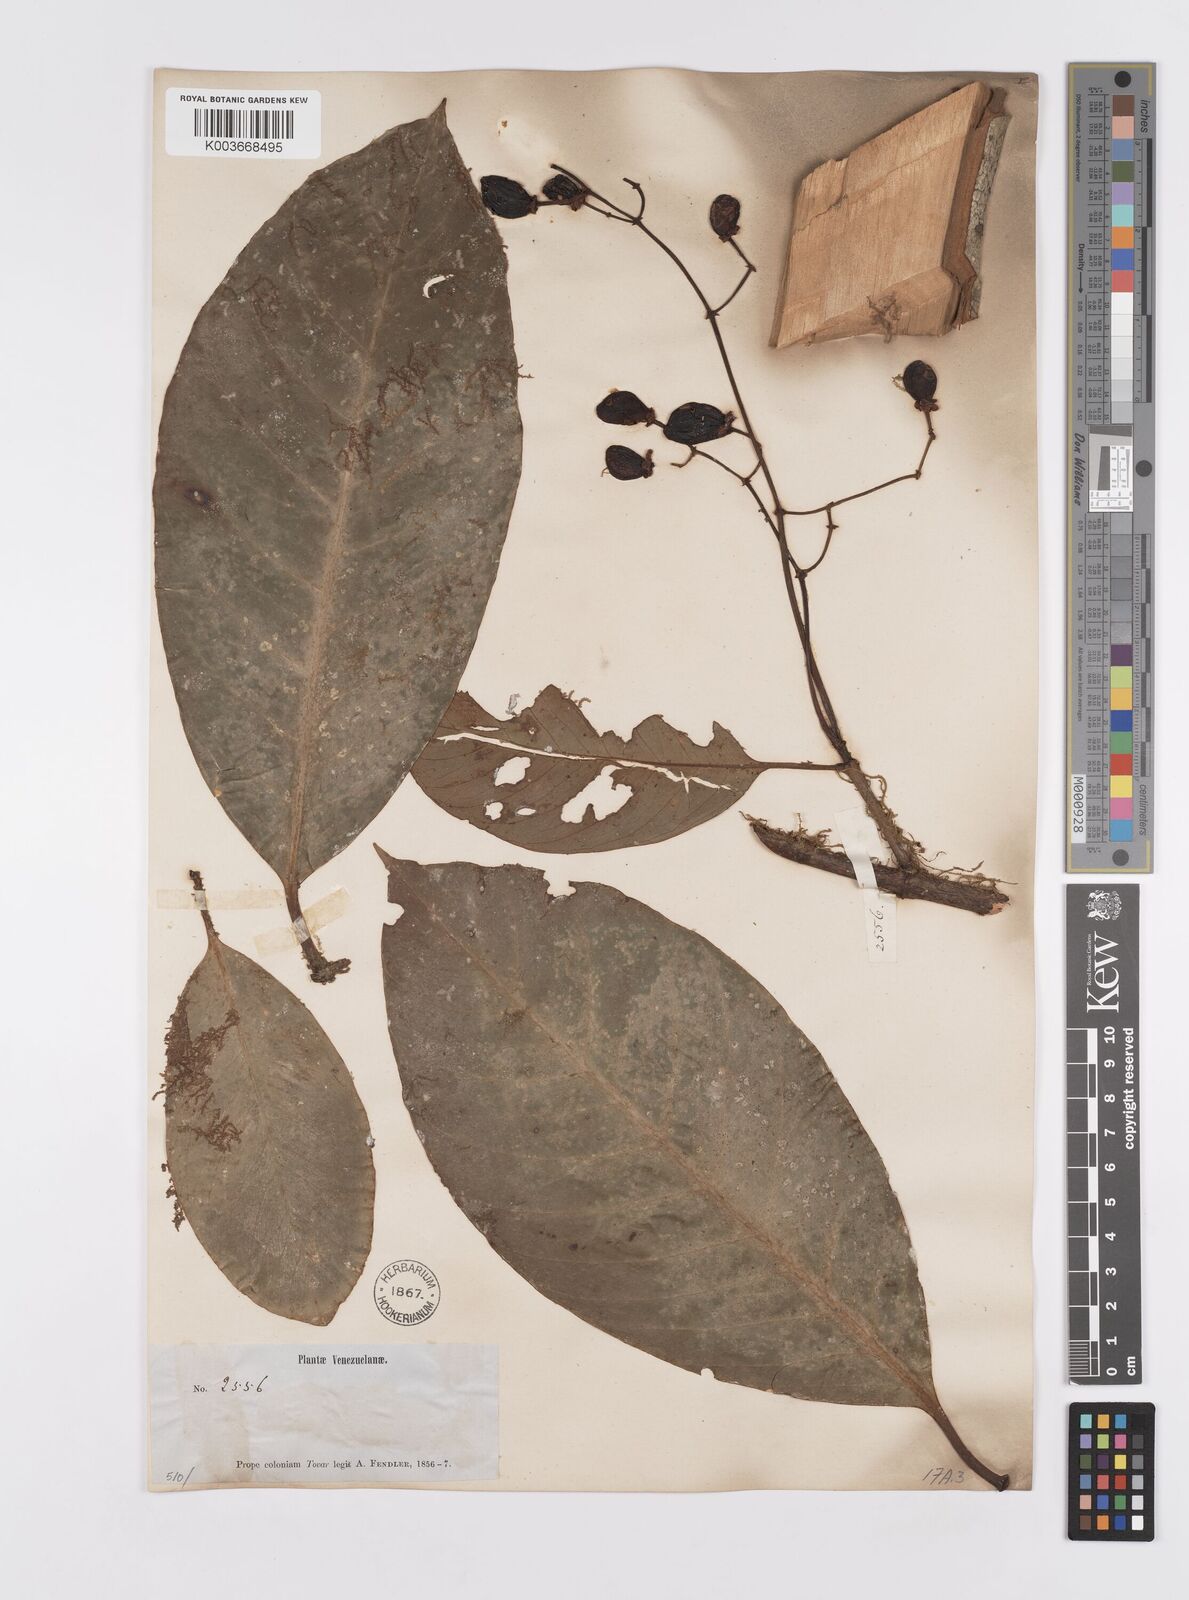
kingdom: Plantae
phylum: Tracheophyta
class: Magnoliopsida
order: Malpighiales
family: Clusiaceae
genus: Chrysochlamys
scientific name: Chrysochlamys
